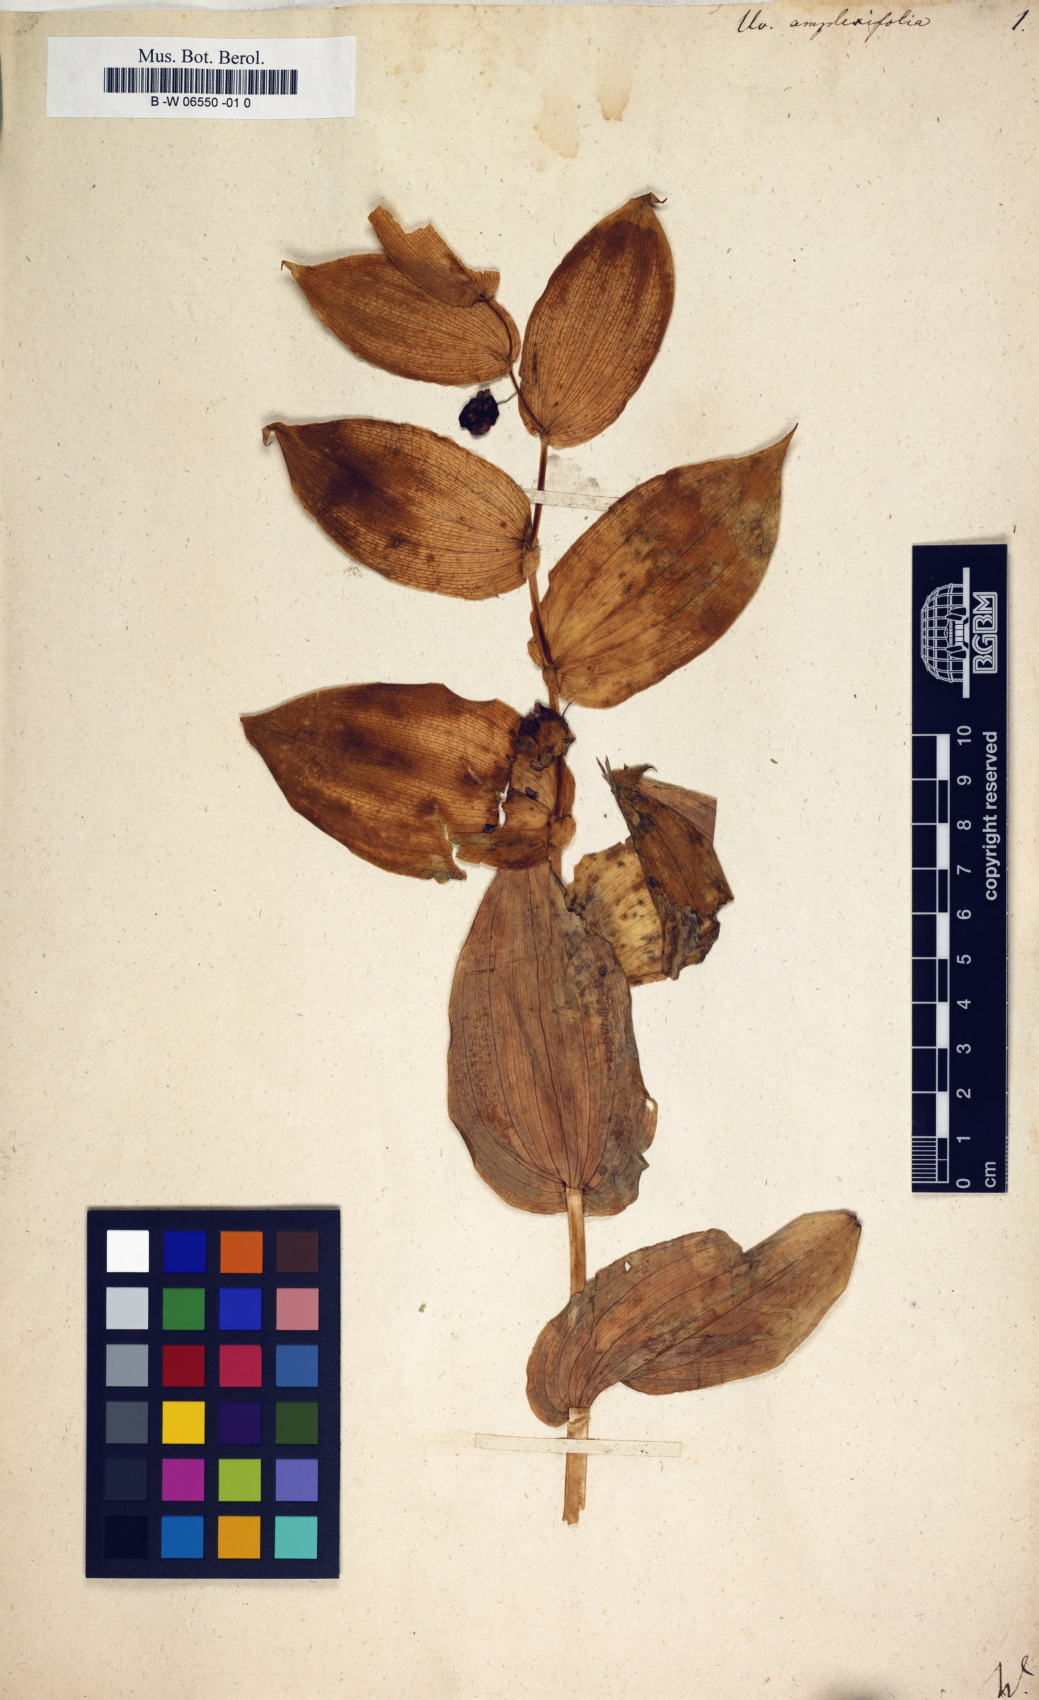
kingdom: Plantae
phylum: Tracheophyta
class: Liliopsida
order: Liliales
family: Liliaceae
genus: Streptopus
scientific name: Streptopus amplexifolius
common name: Clasp twisted stalk
